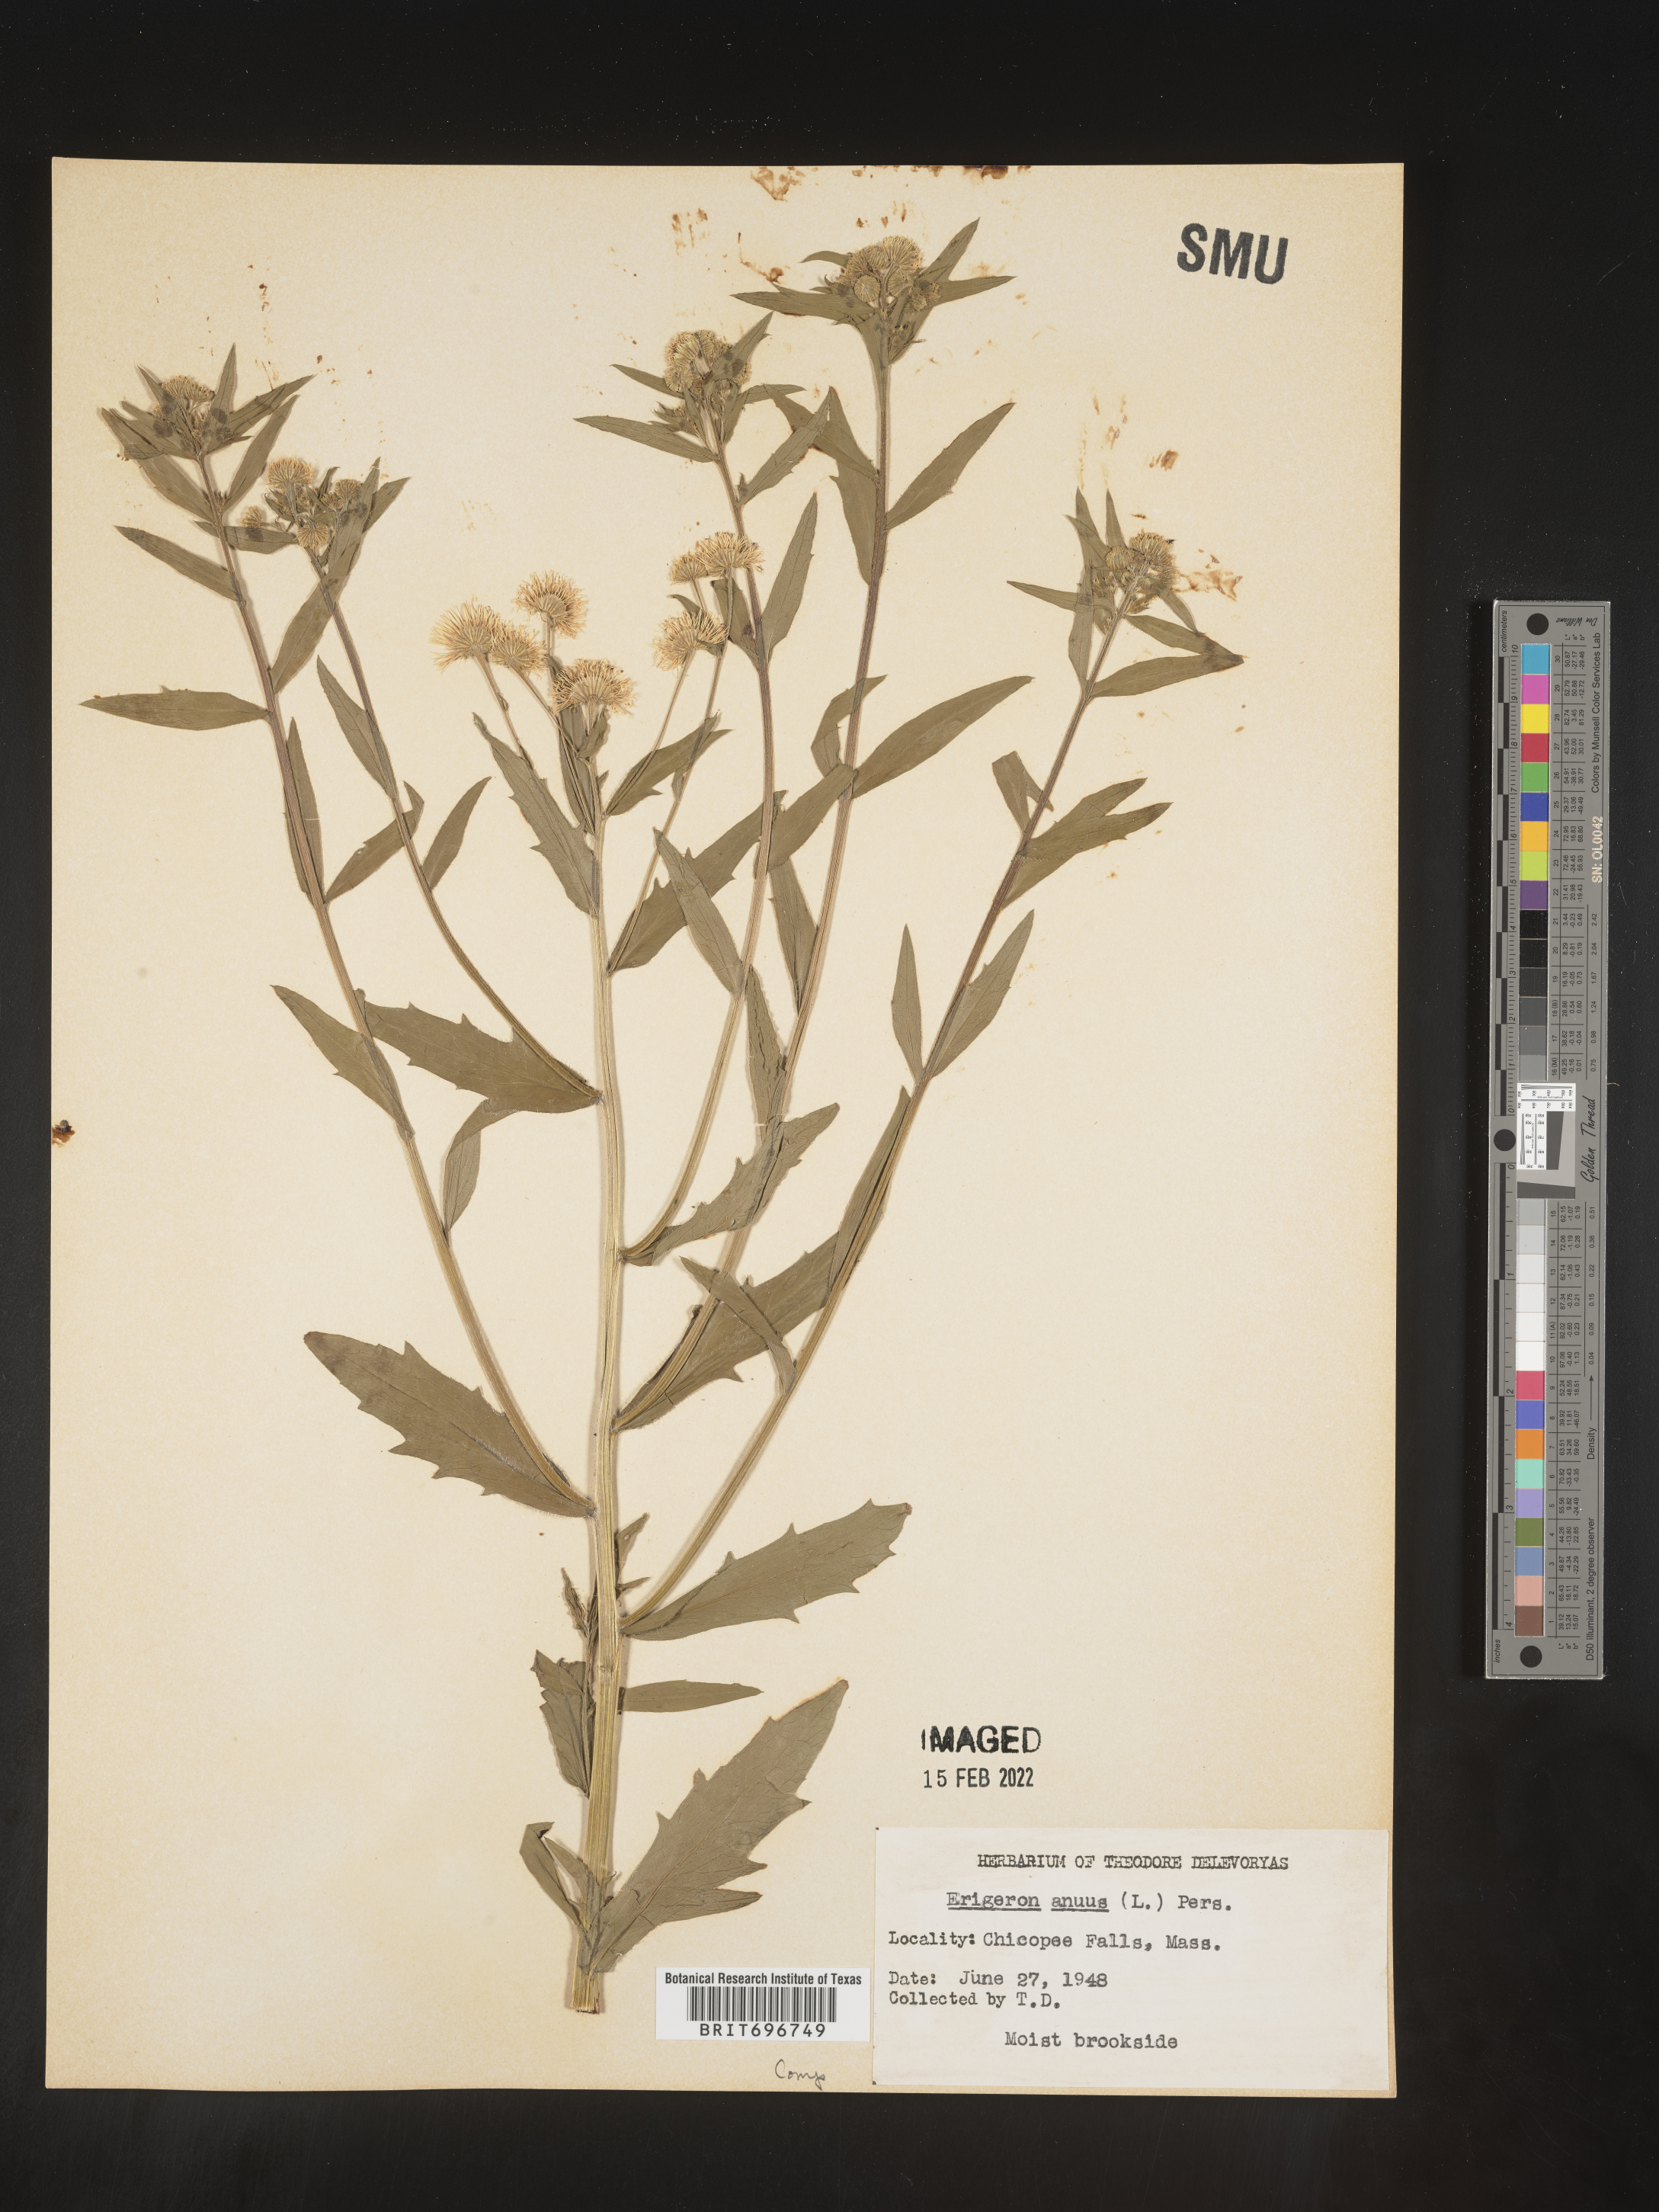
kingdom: Plantae
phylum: Tracheophyta
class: Magnoliopsida
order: Asterales
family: Asteraceae
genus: Erigeron
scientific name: Erigeron annuus
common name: Tall fleabane
